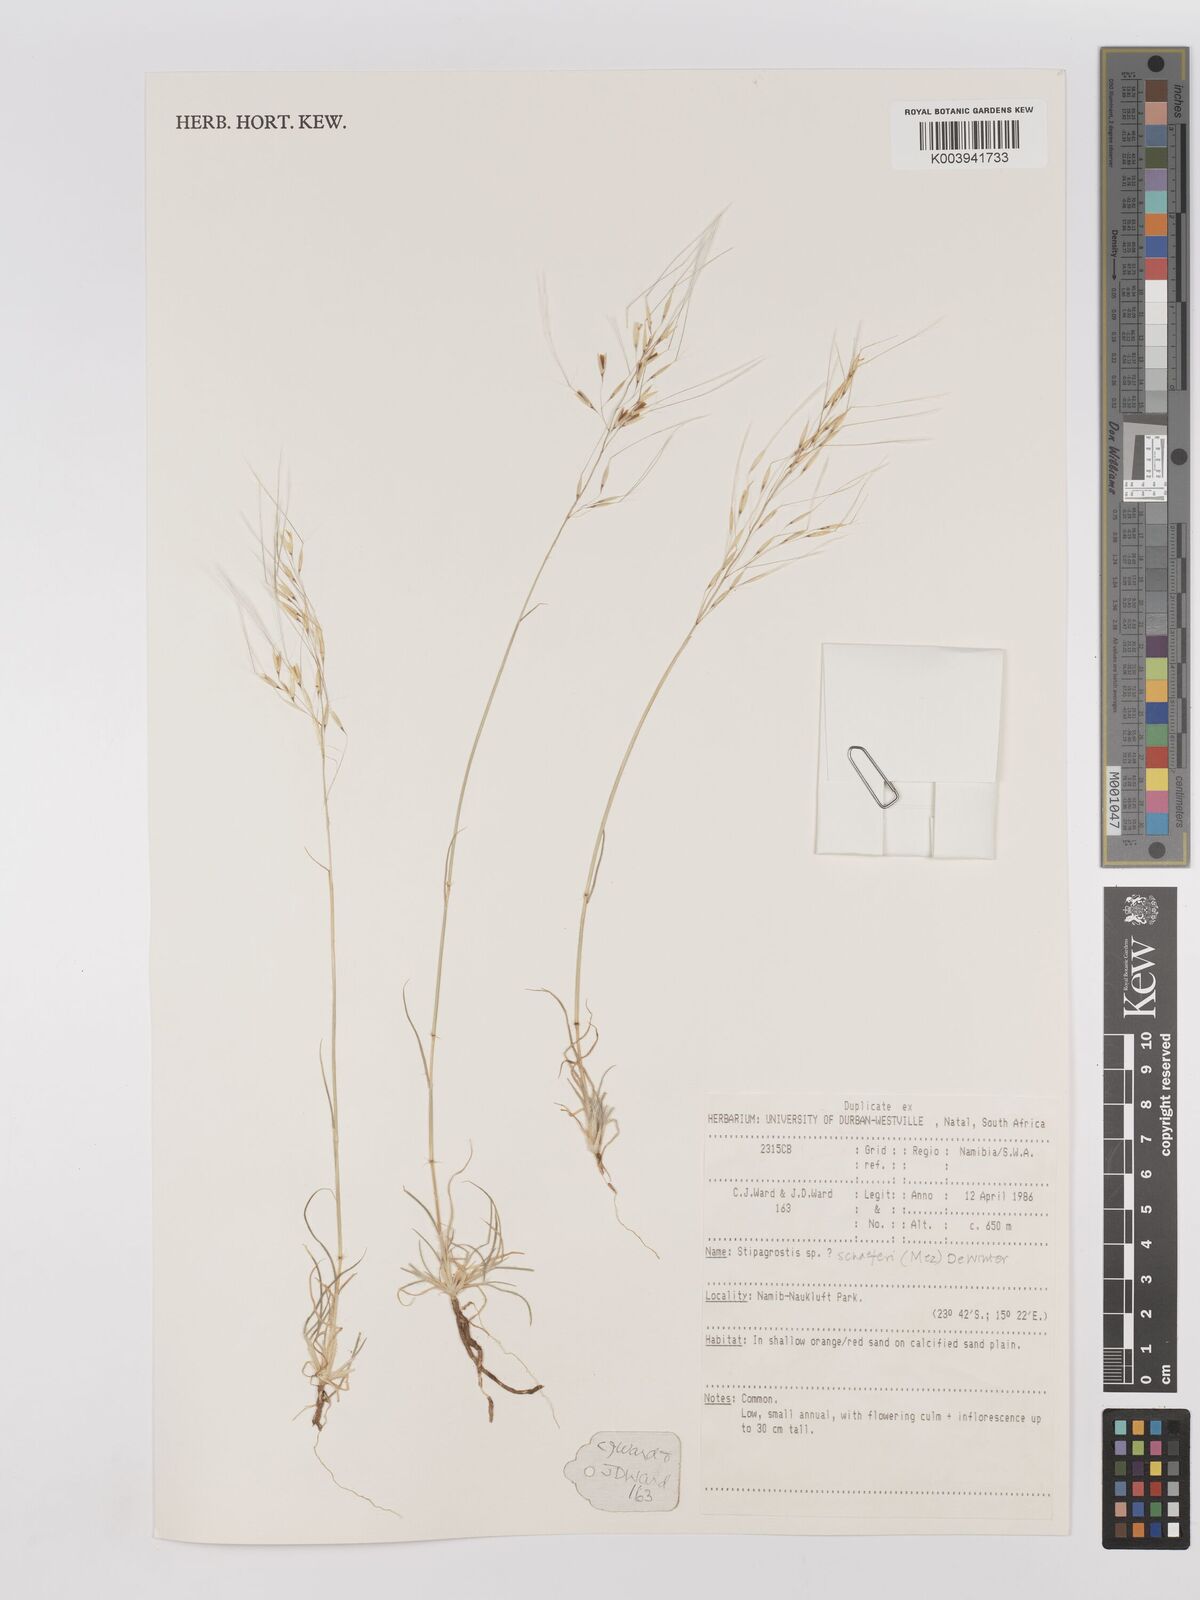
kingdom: Plantae
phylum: Tracheophyta
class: Liliopsida
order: Poales
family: Poaceae
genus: Stipagrostis
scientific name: Stipagrostis schaeferi
